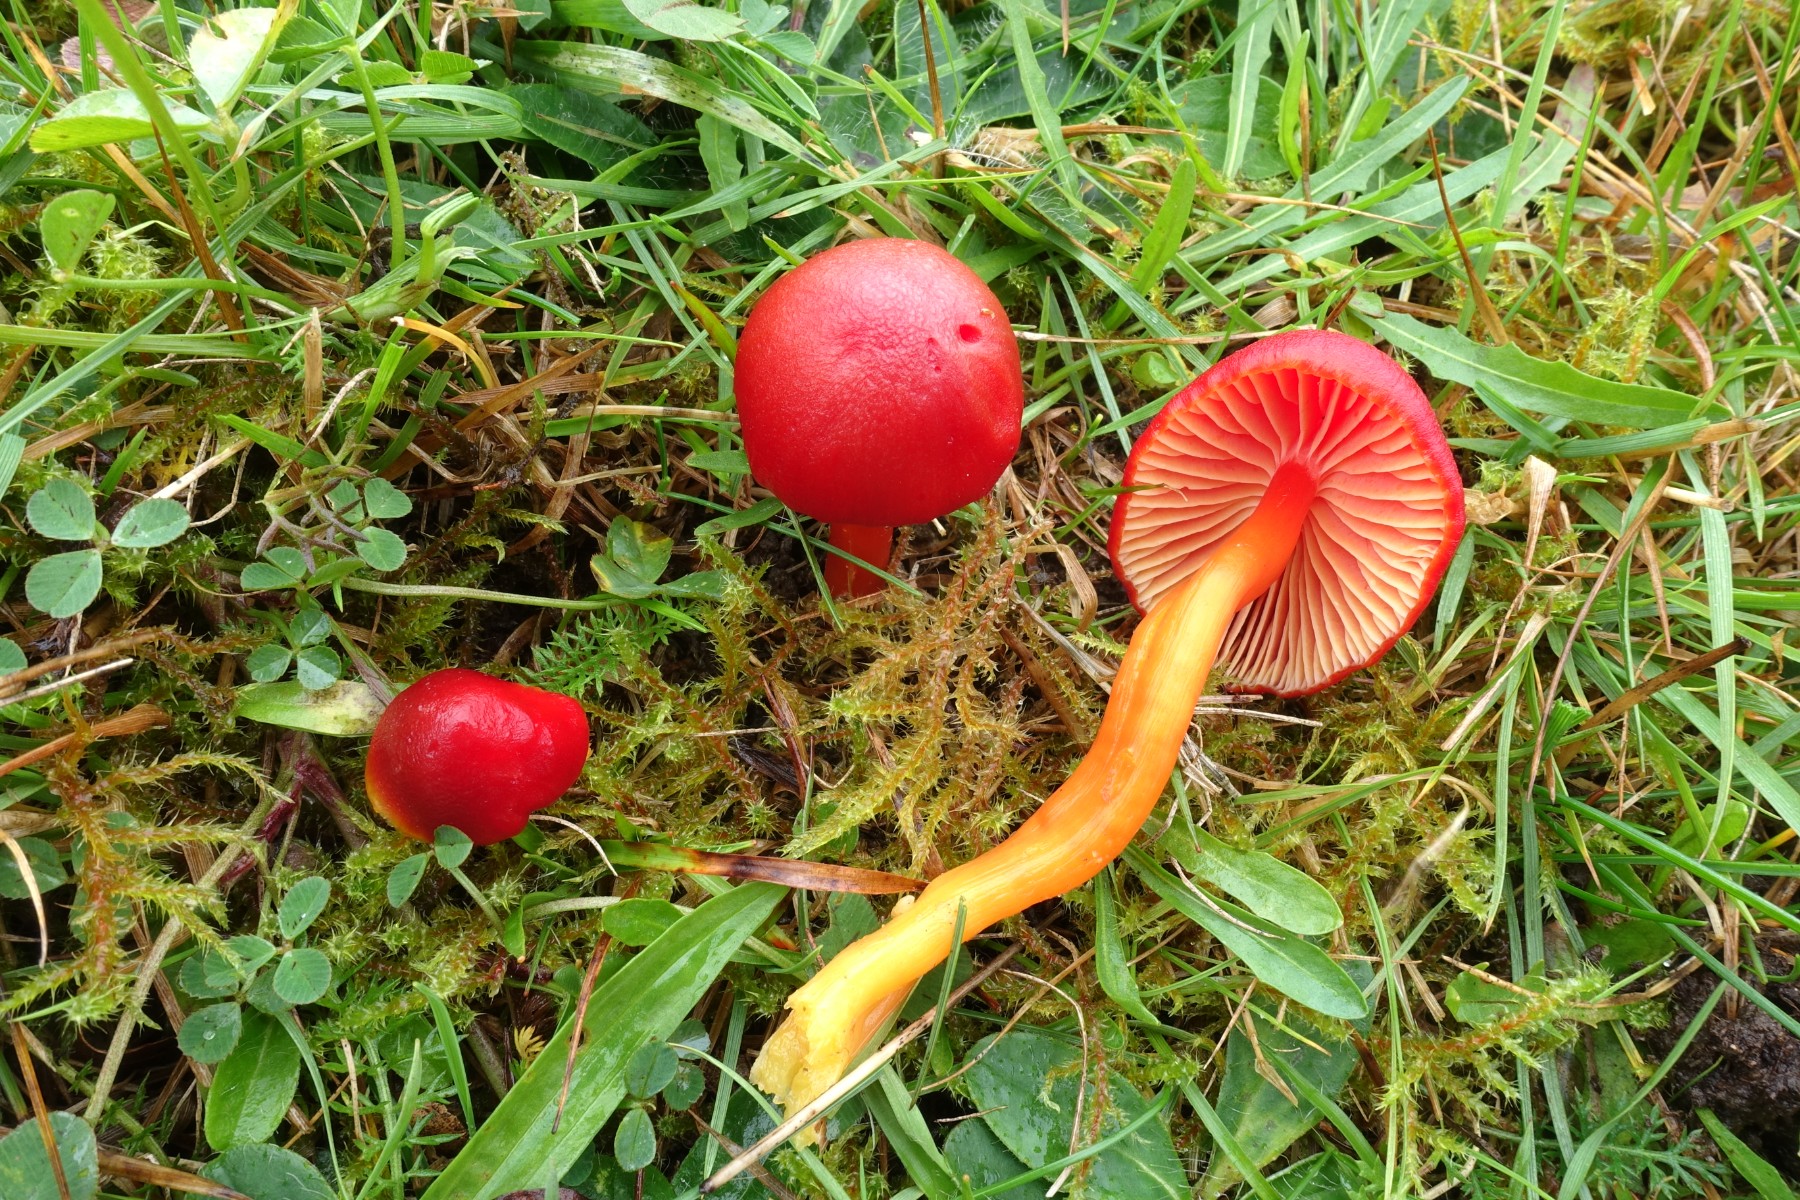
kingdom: Fungi
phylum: Basidiomycota
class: Agaricomycetes
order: Agaricales
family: Hygrophoraceae
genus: Hygrocybe
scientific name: Hygrocybe coccinea
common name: cinnober-vokshat
